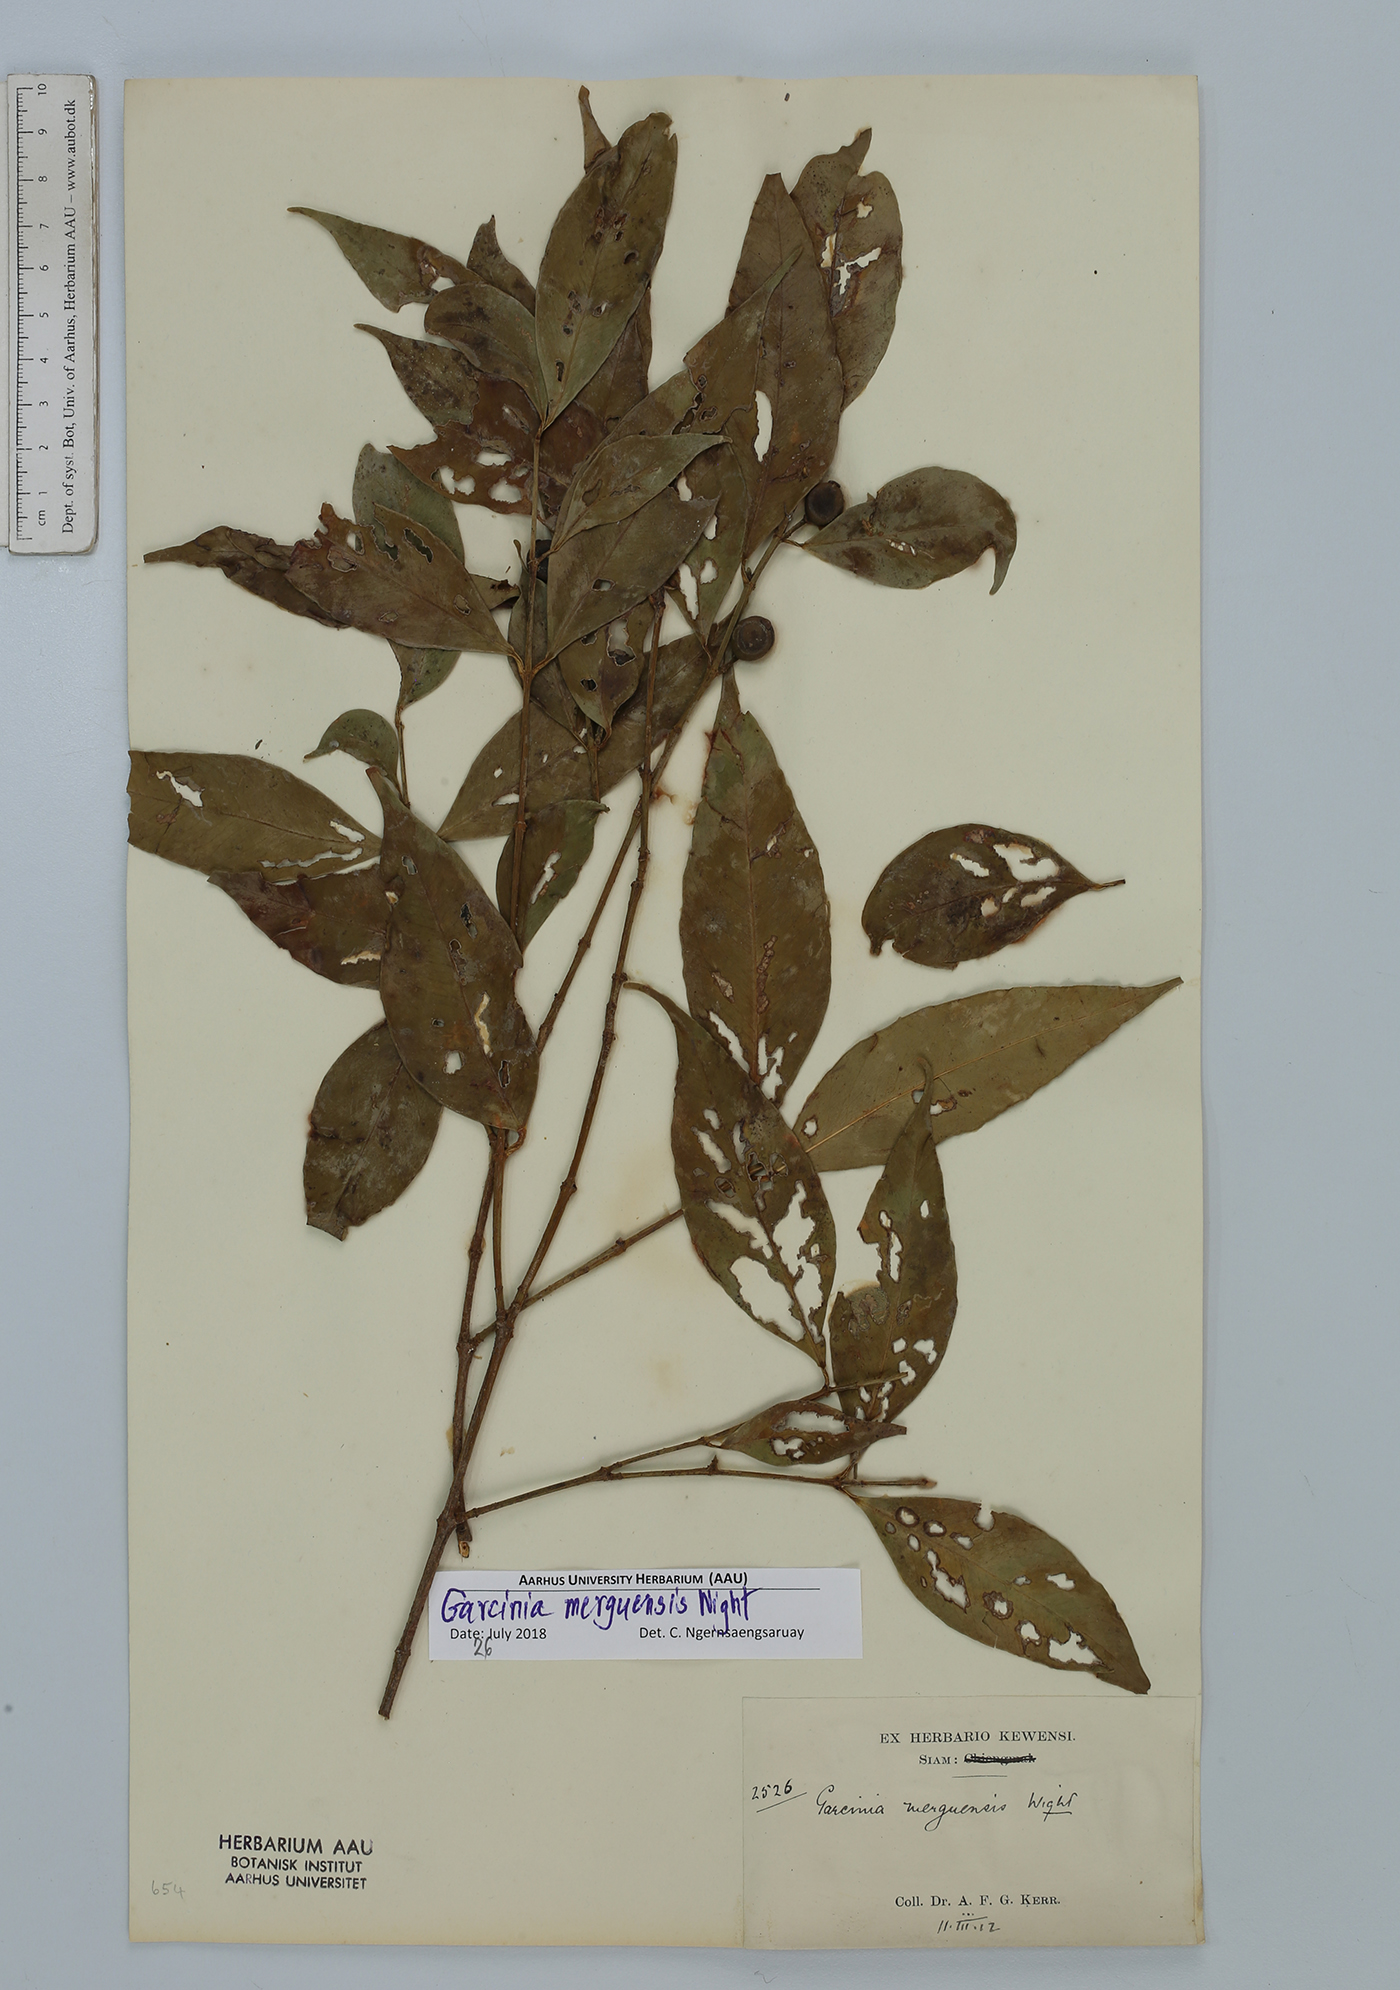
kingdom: Plantae
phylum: Tracheophyta
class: Magnoliopsida
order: Malpighiales
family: Clusiaceae
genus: Garcinia
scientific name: Garcinia merguensis
